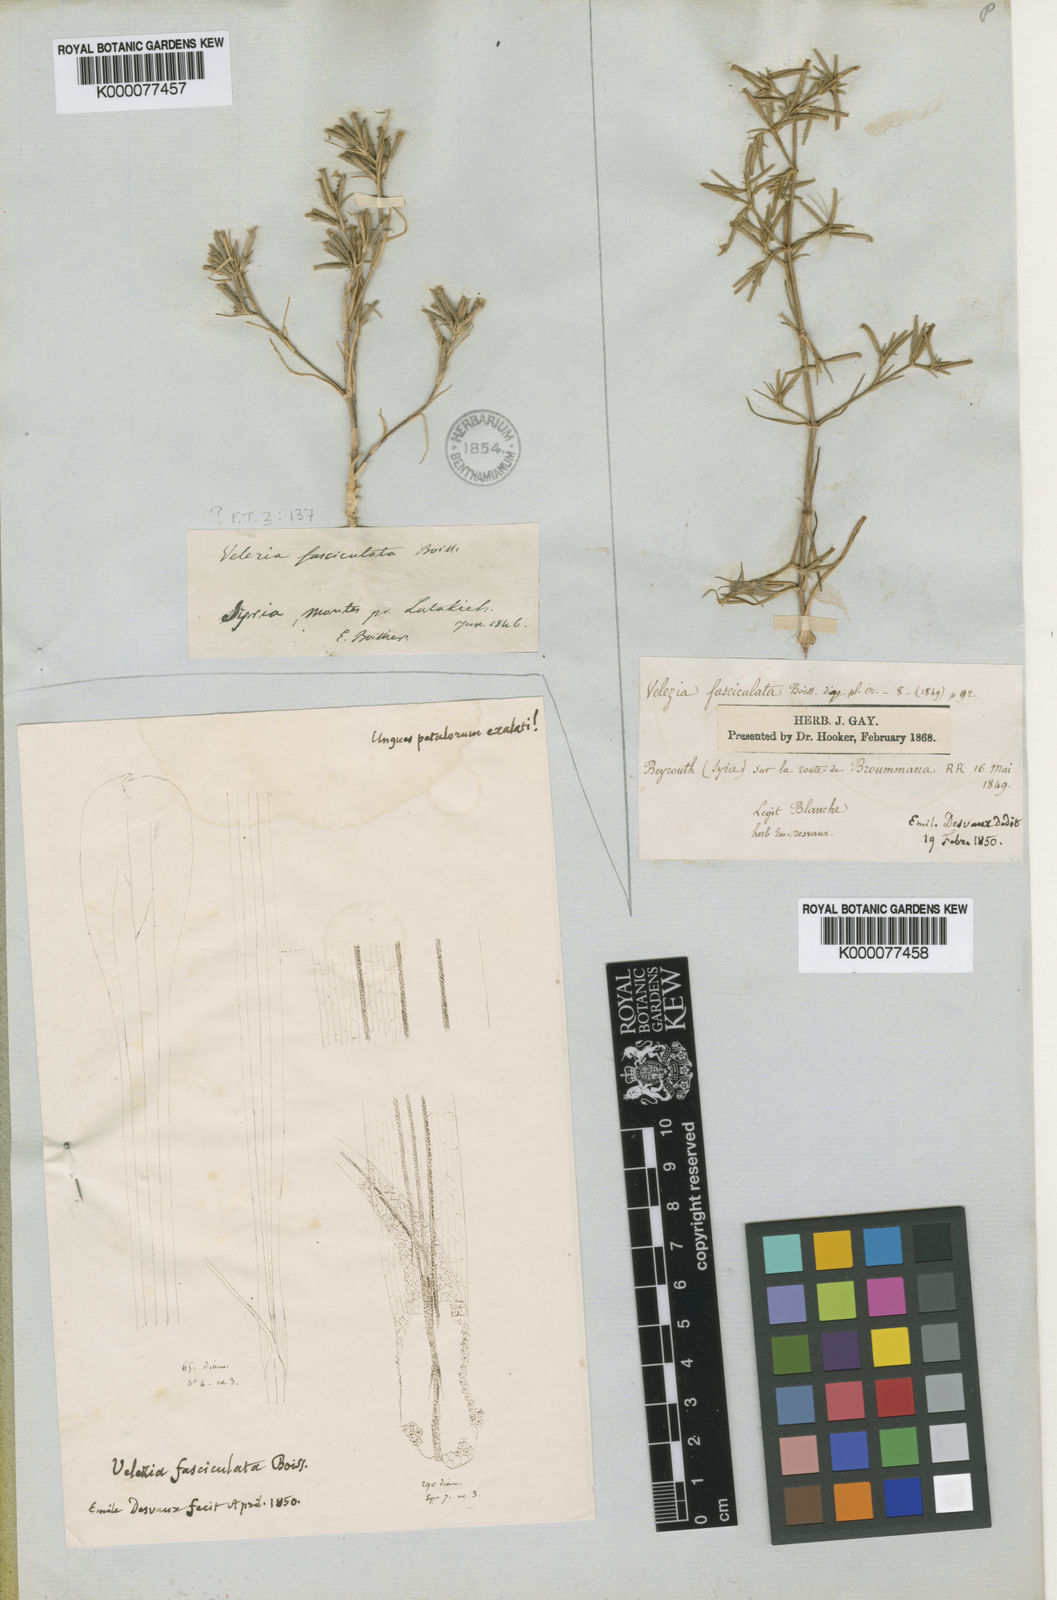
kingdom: Plantae
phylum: Tracheophyta
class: Magnoliopsida
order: Caryophyllales
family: Caryophyllaceae
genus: Dianthus
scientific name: Dianthus fasciculatus
